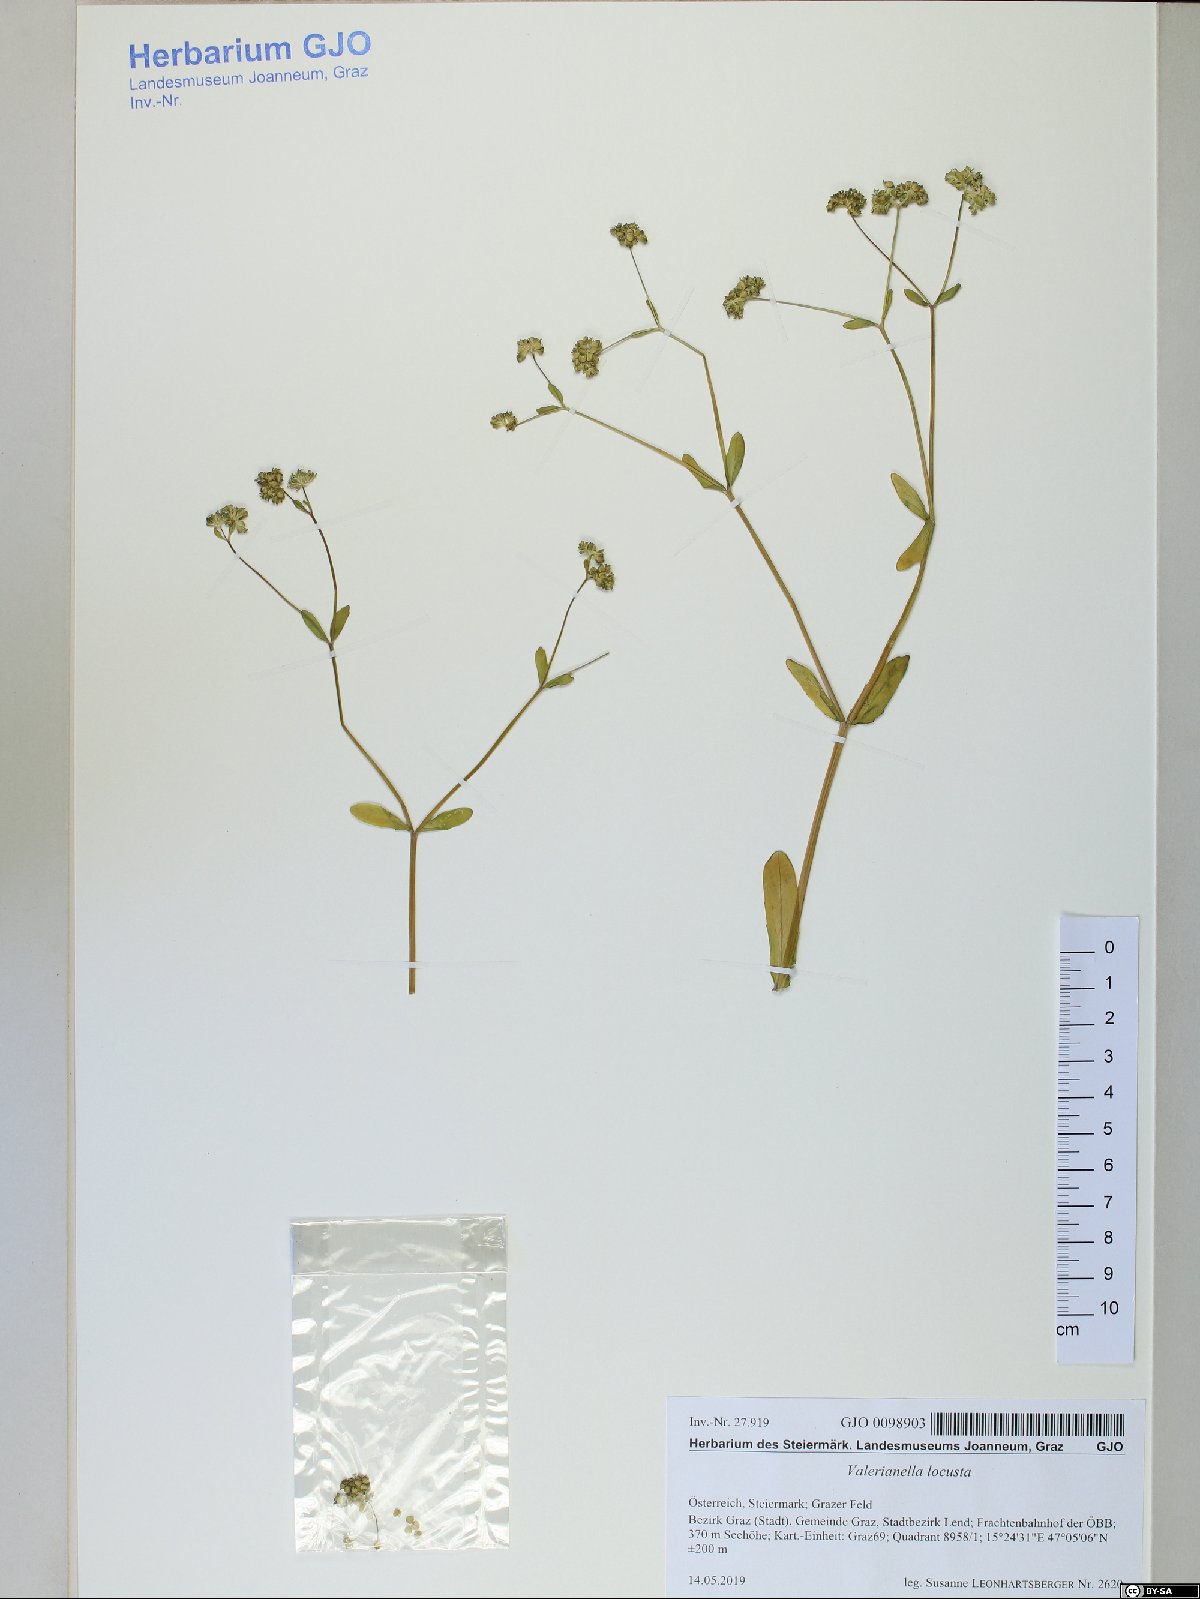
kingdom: Plantae
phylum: Tracheophyta
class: Magnoliopsida
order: Dipsacales
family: Caprifoliaceae
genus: Valerianella
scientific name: Valerianella locusta
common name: Common cornsalad
